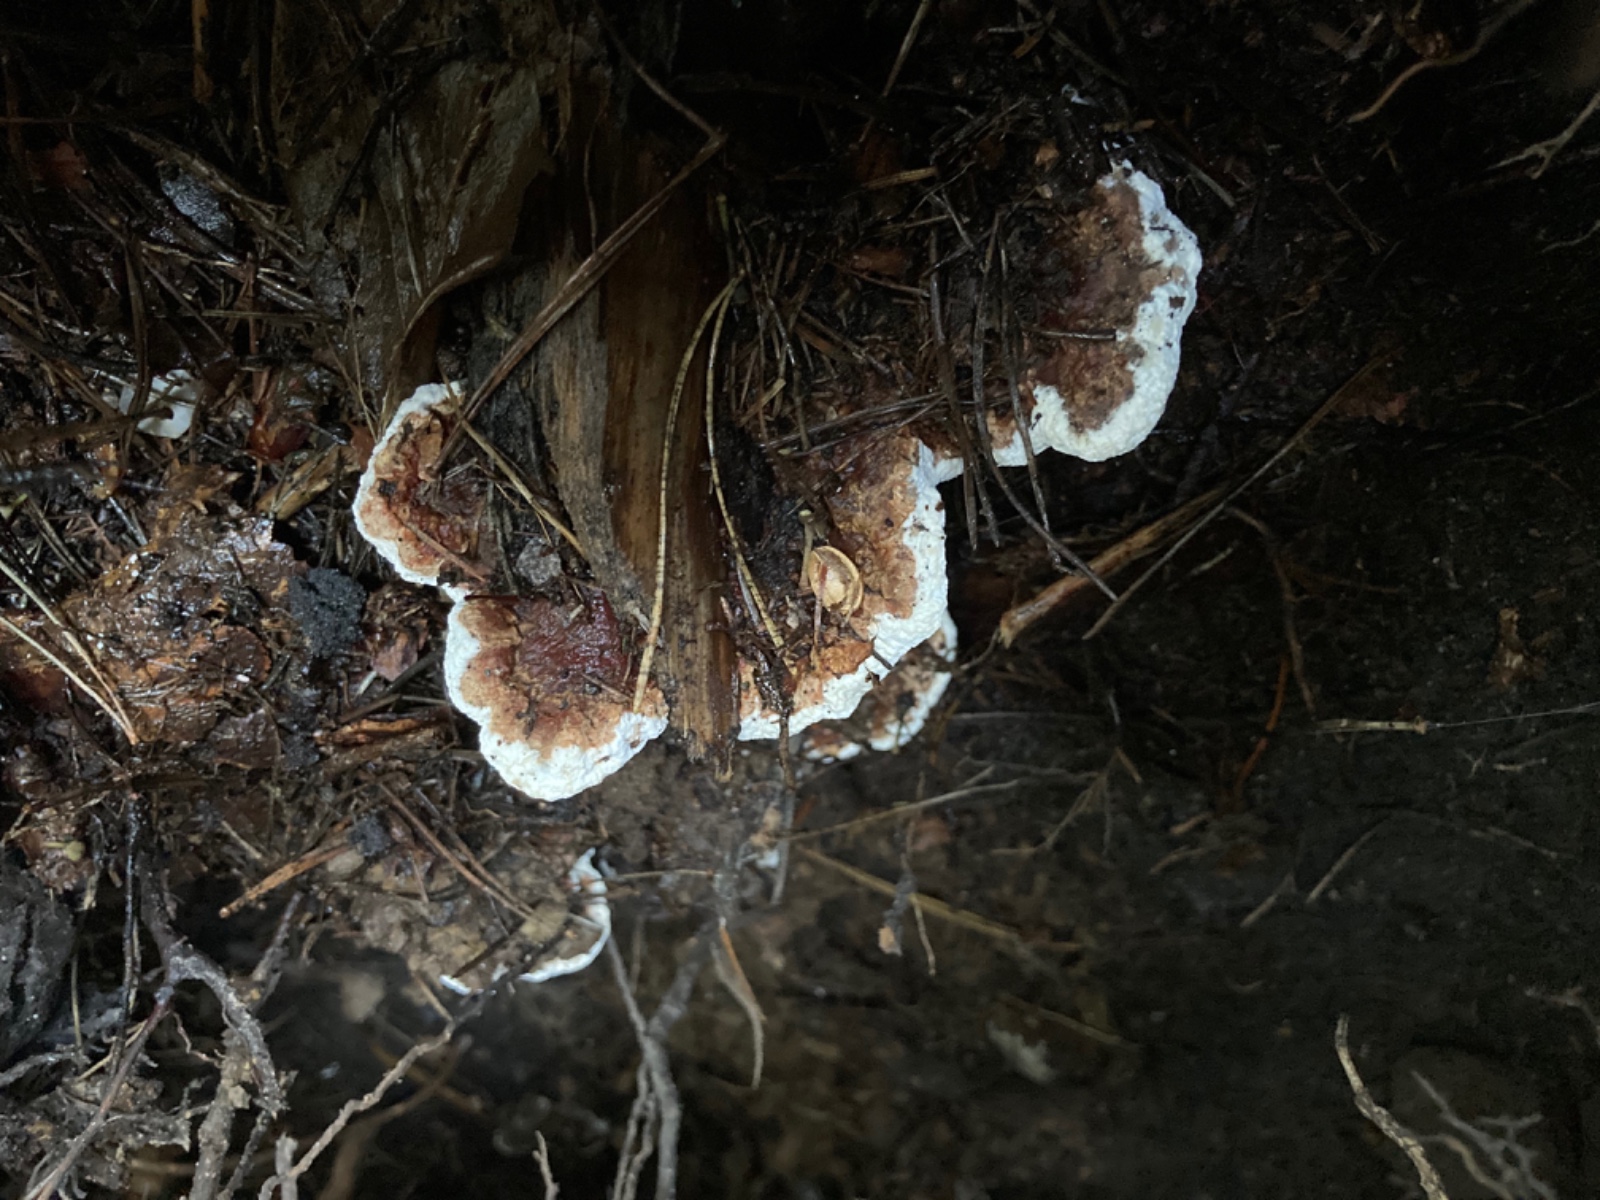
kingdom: Fungi
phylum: Basidiomycota
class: Agaricomycetes
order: Russulales
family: Bondarzewiaceae
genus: Heterobasidion
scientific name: Heterobasidion annosum
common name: almindelig rodfordærver
